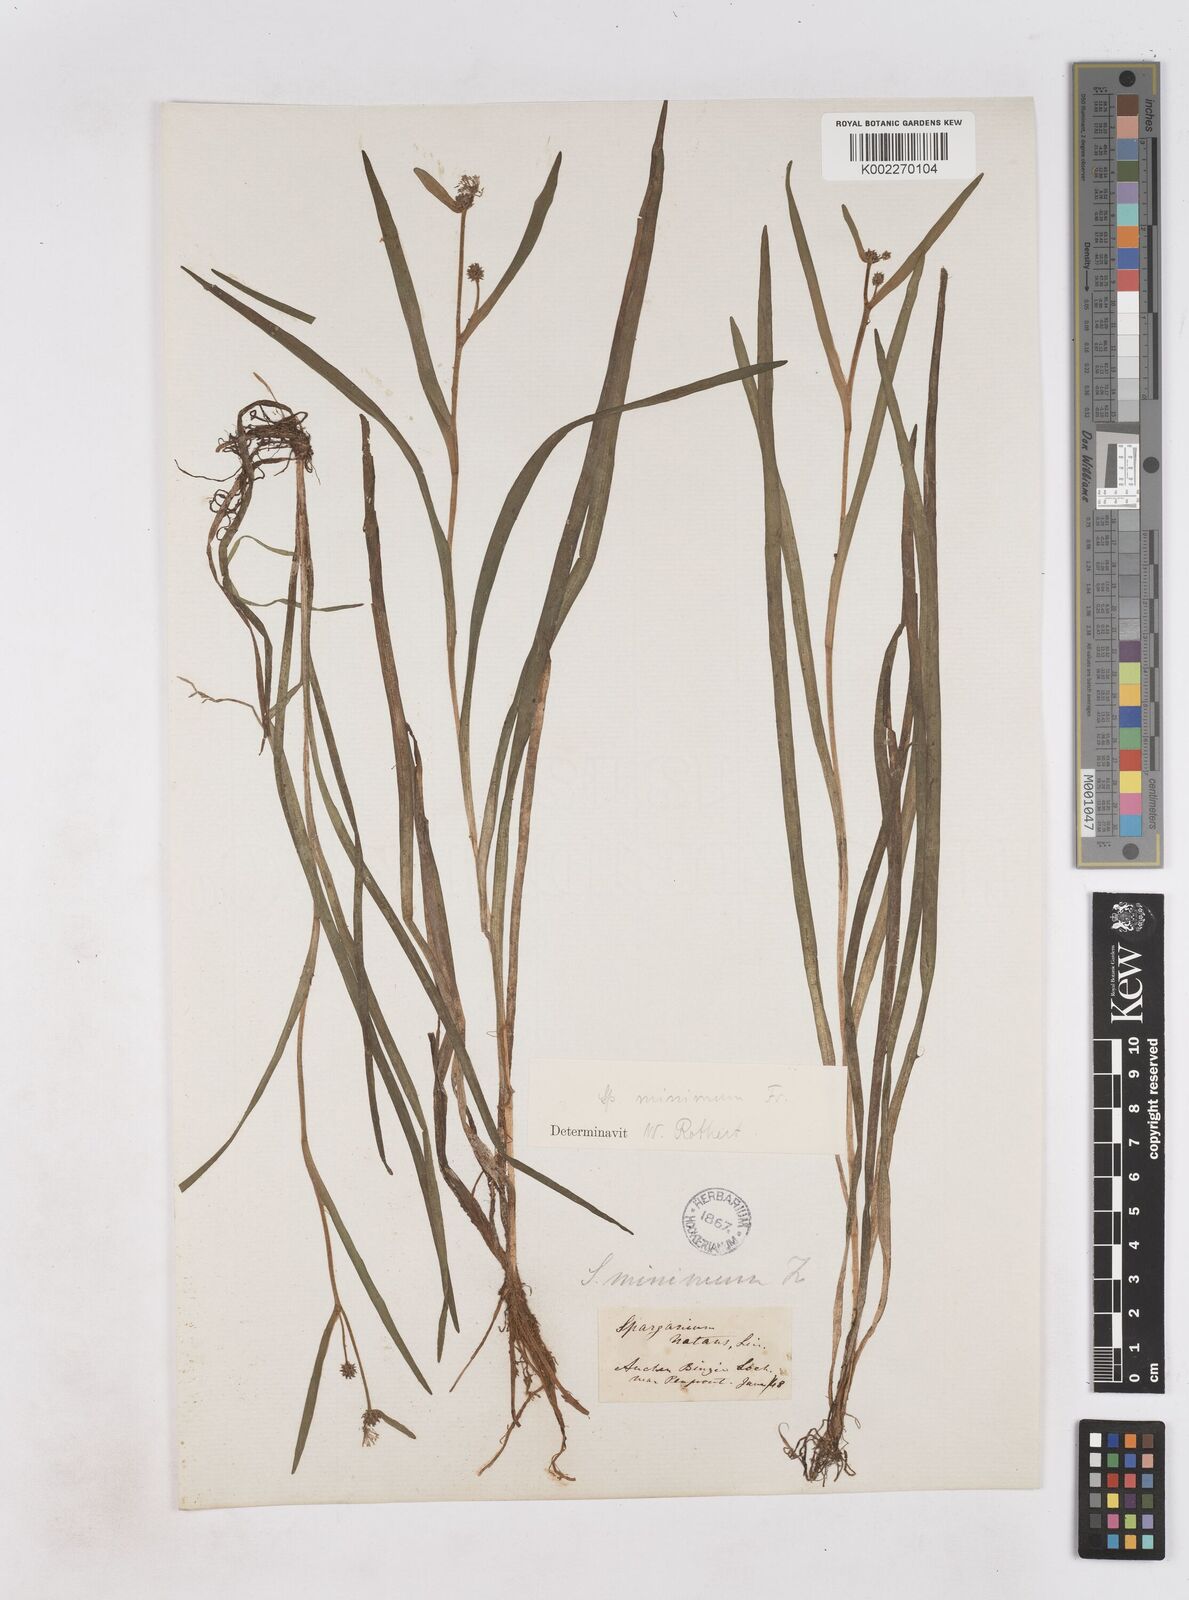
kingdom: Plantae
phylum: Tracheophyta
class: Liliopsida
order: Poales
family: Typhaceae
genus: Sparganium
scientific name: Sparganium natans
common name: Least bur-reed
